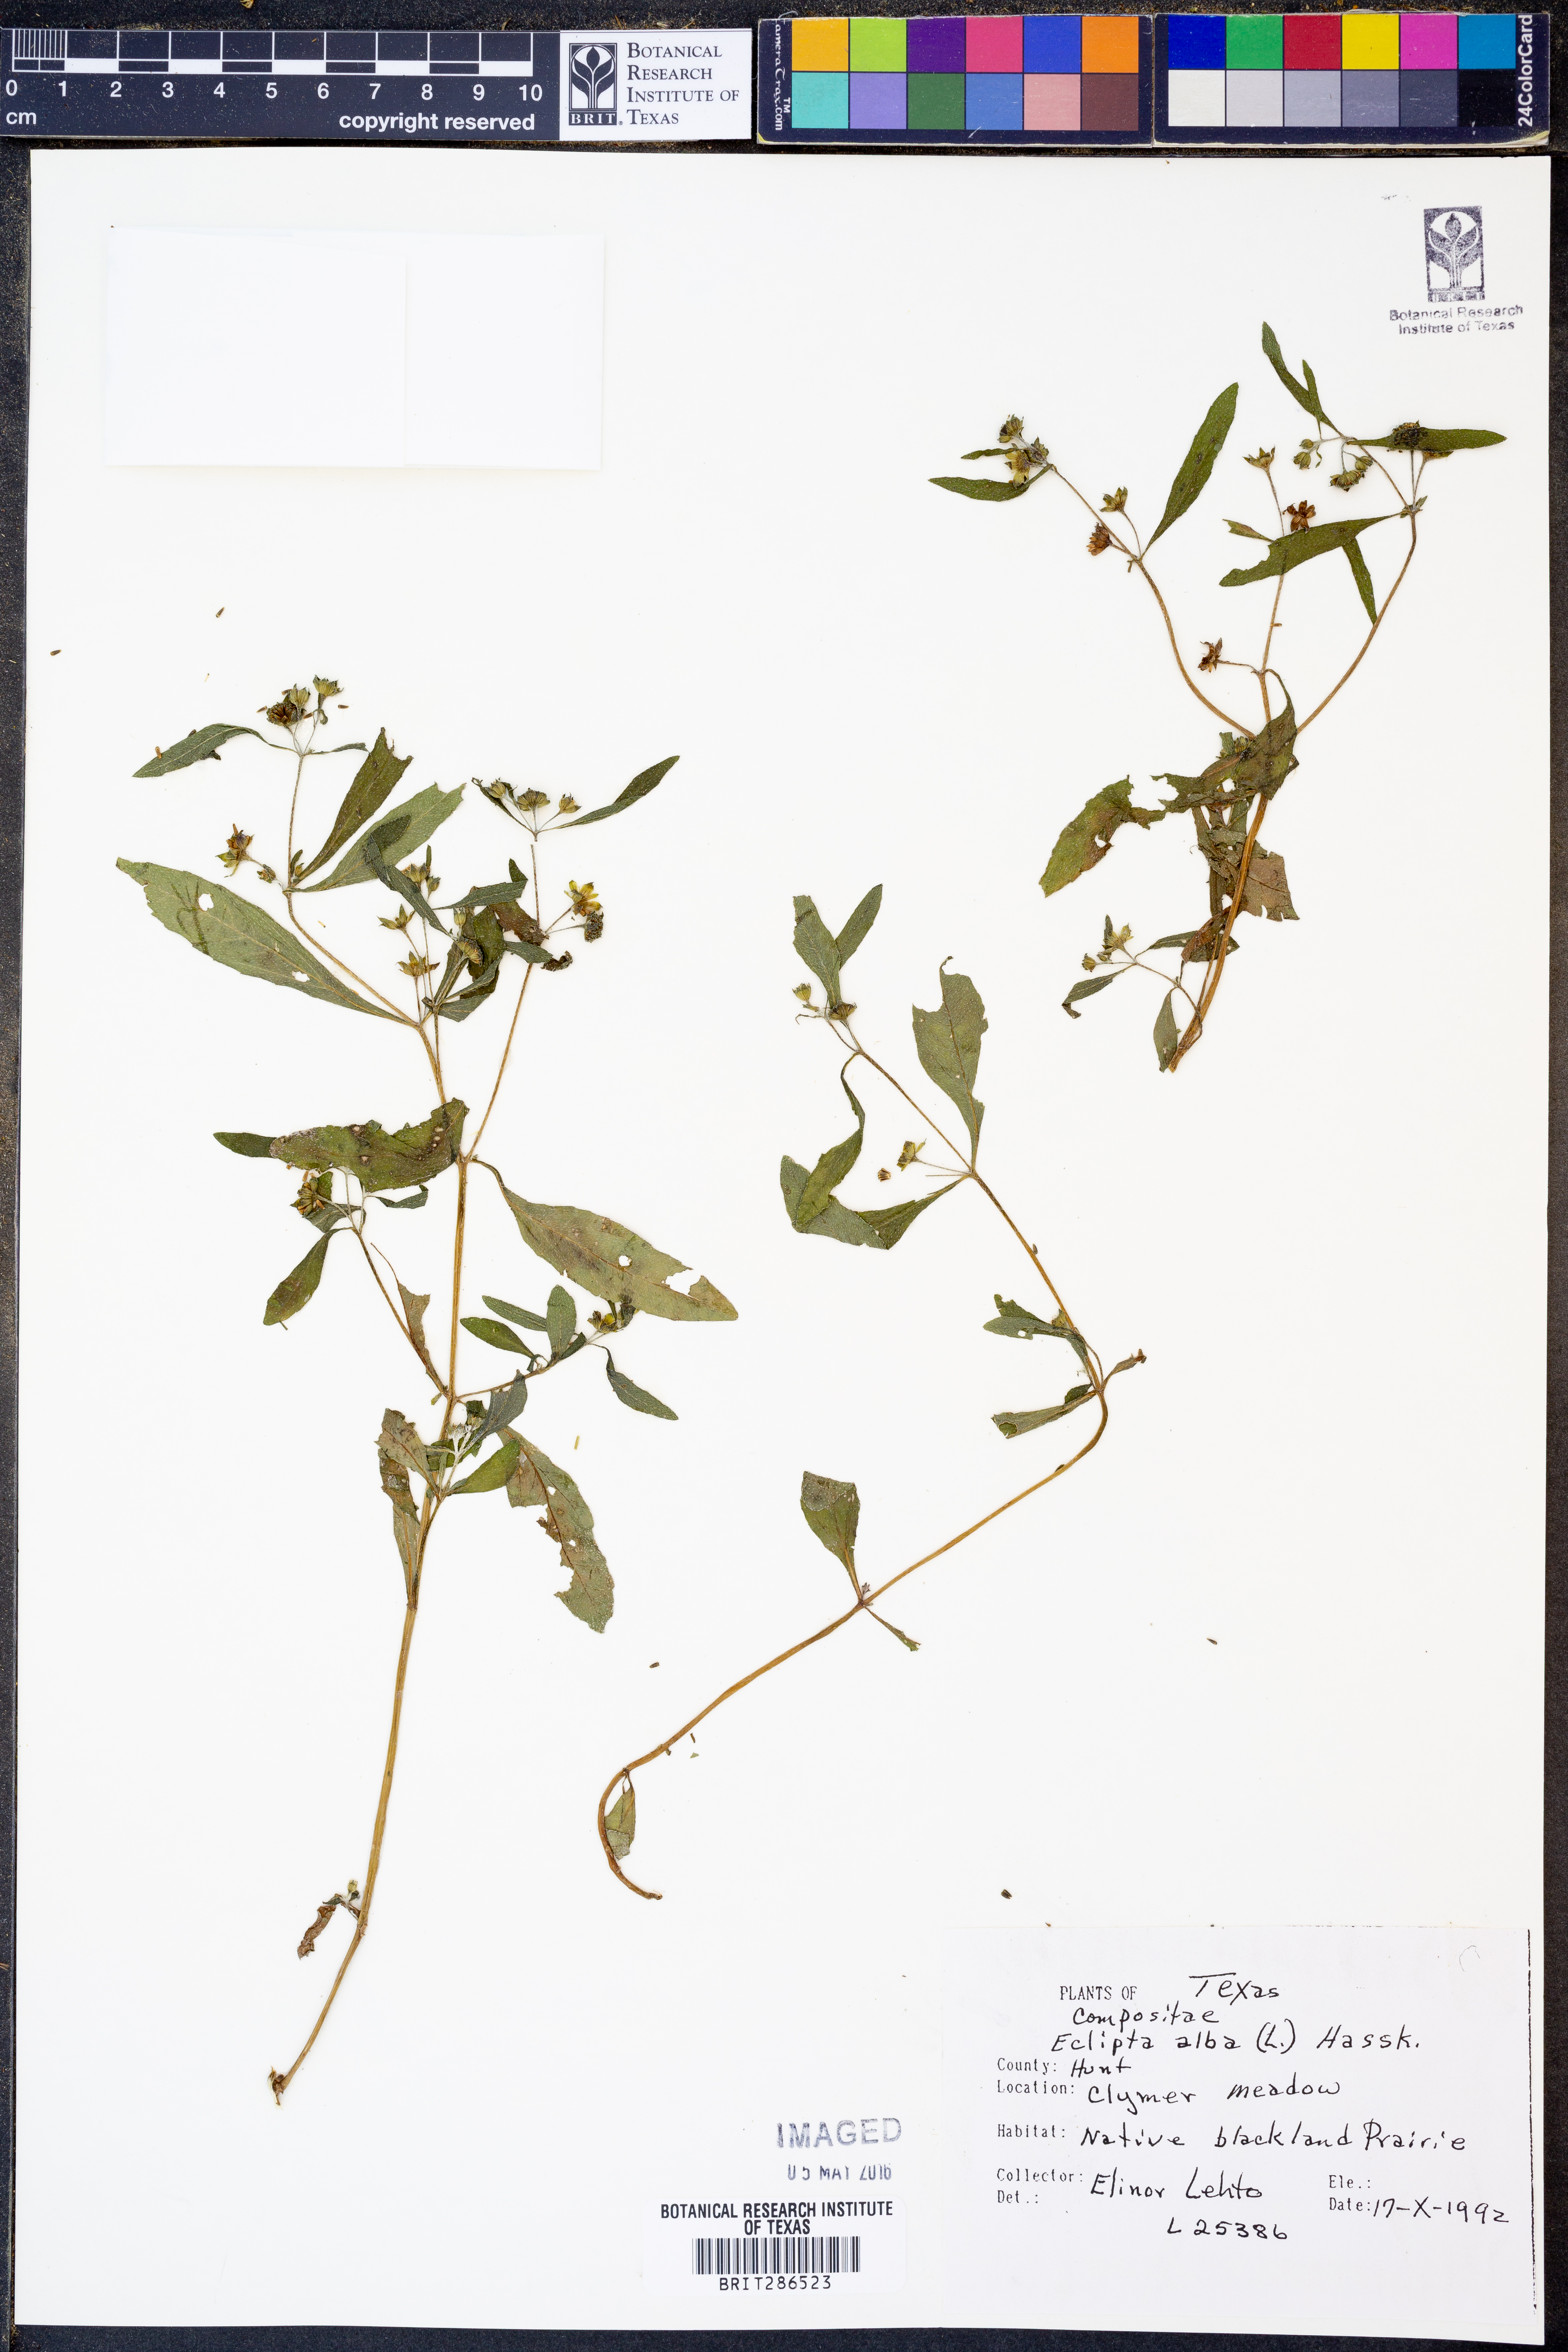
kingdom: Plantae
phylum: Tracheophyta
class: Magnoliopsida
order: Asterales
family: Asteraceae
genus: Eclipta
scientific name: Eclipta alba
